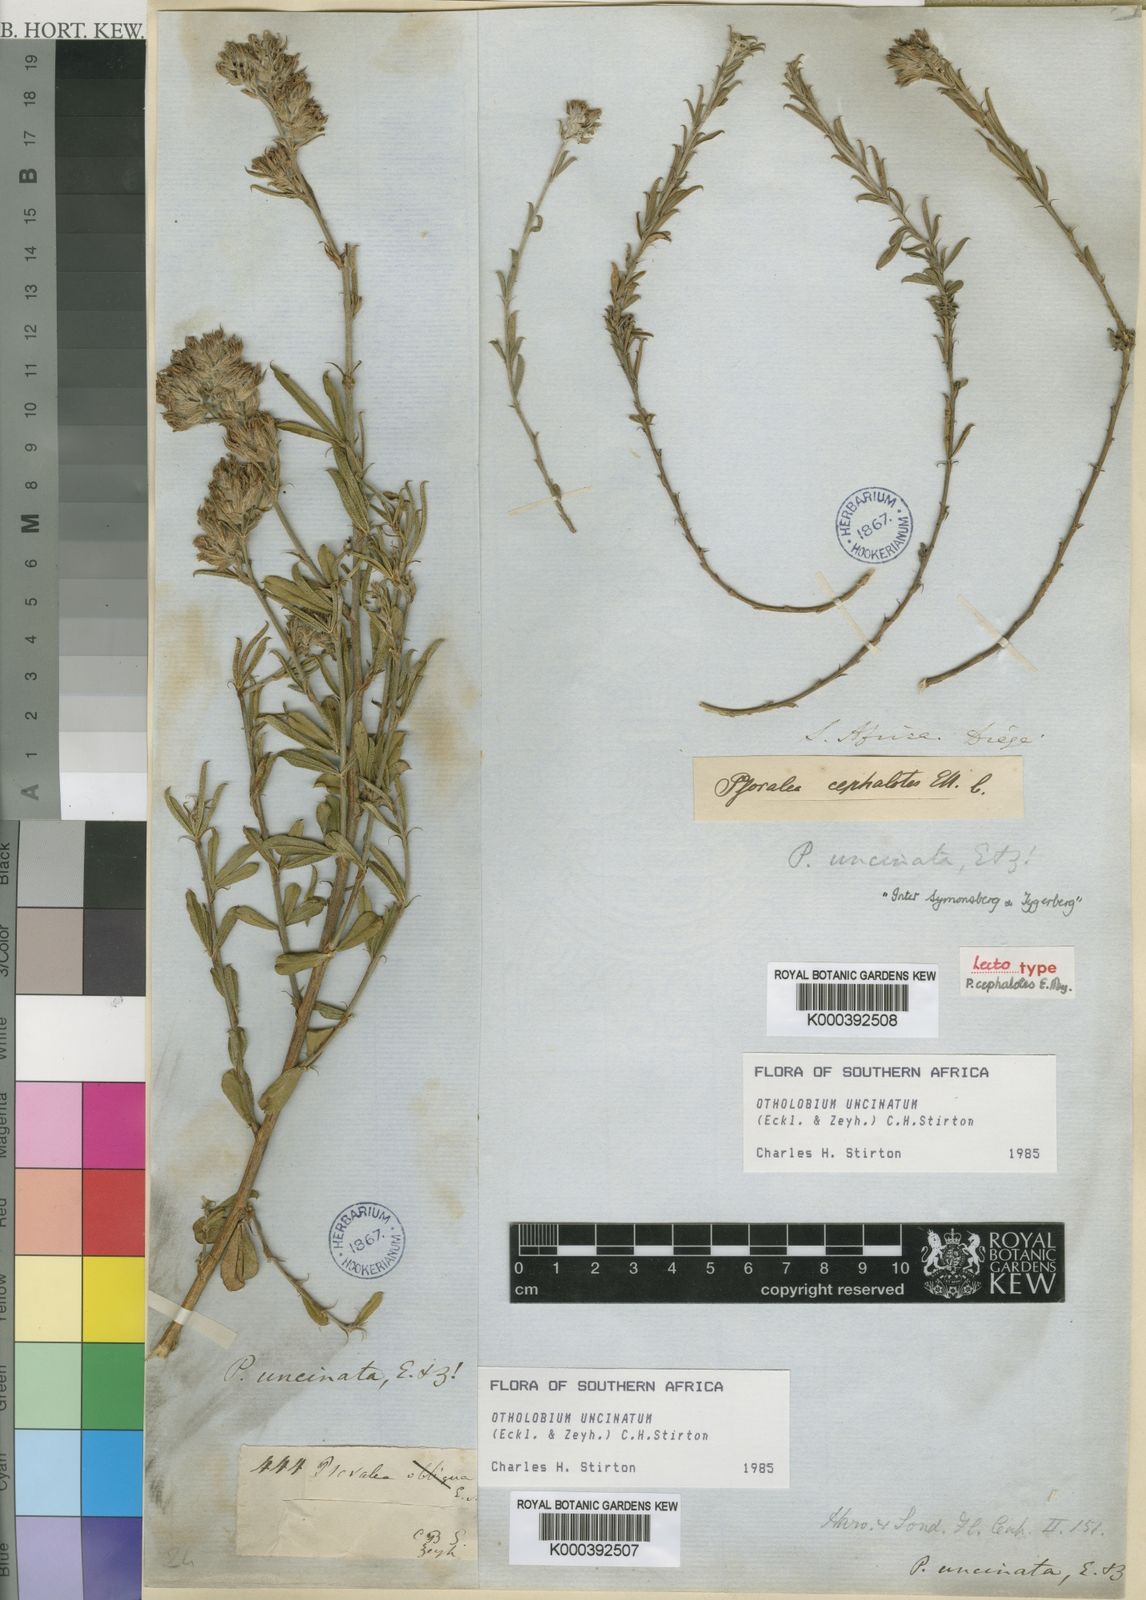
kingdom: Plantae
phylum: Tracheophyta
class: Magnoliopsida
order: Fabales
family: Fabaceae
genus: Psoralea
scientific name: Psoralea uncinata
